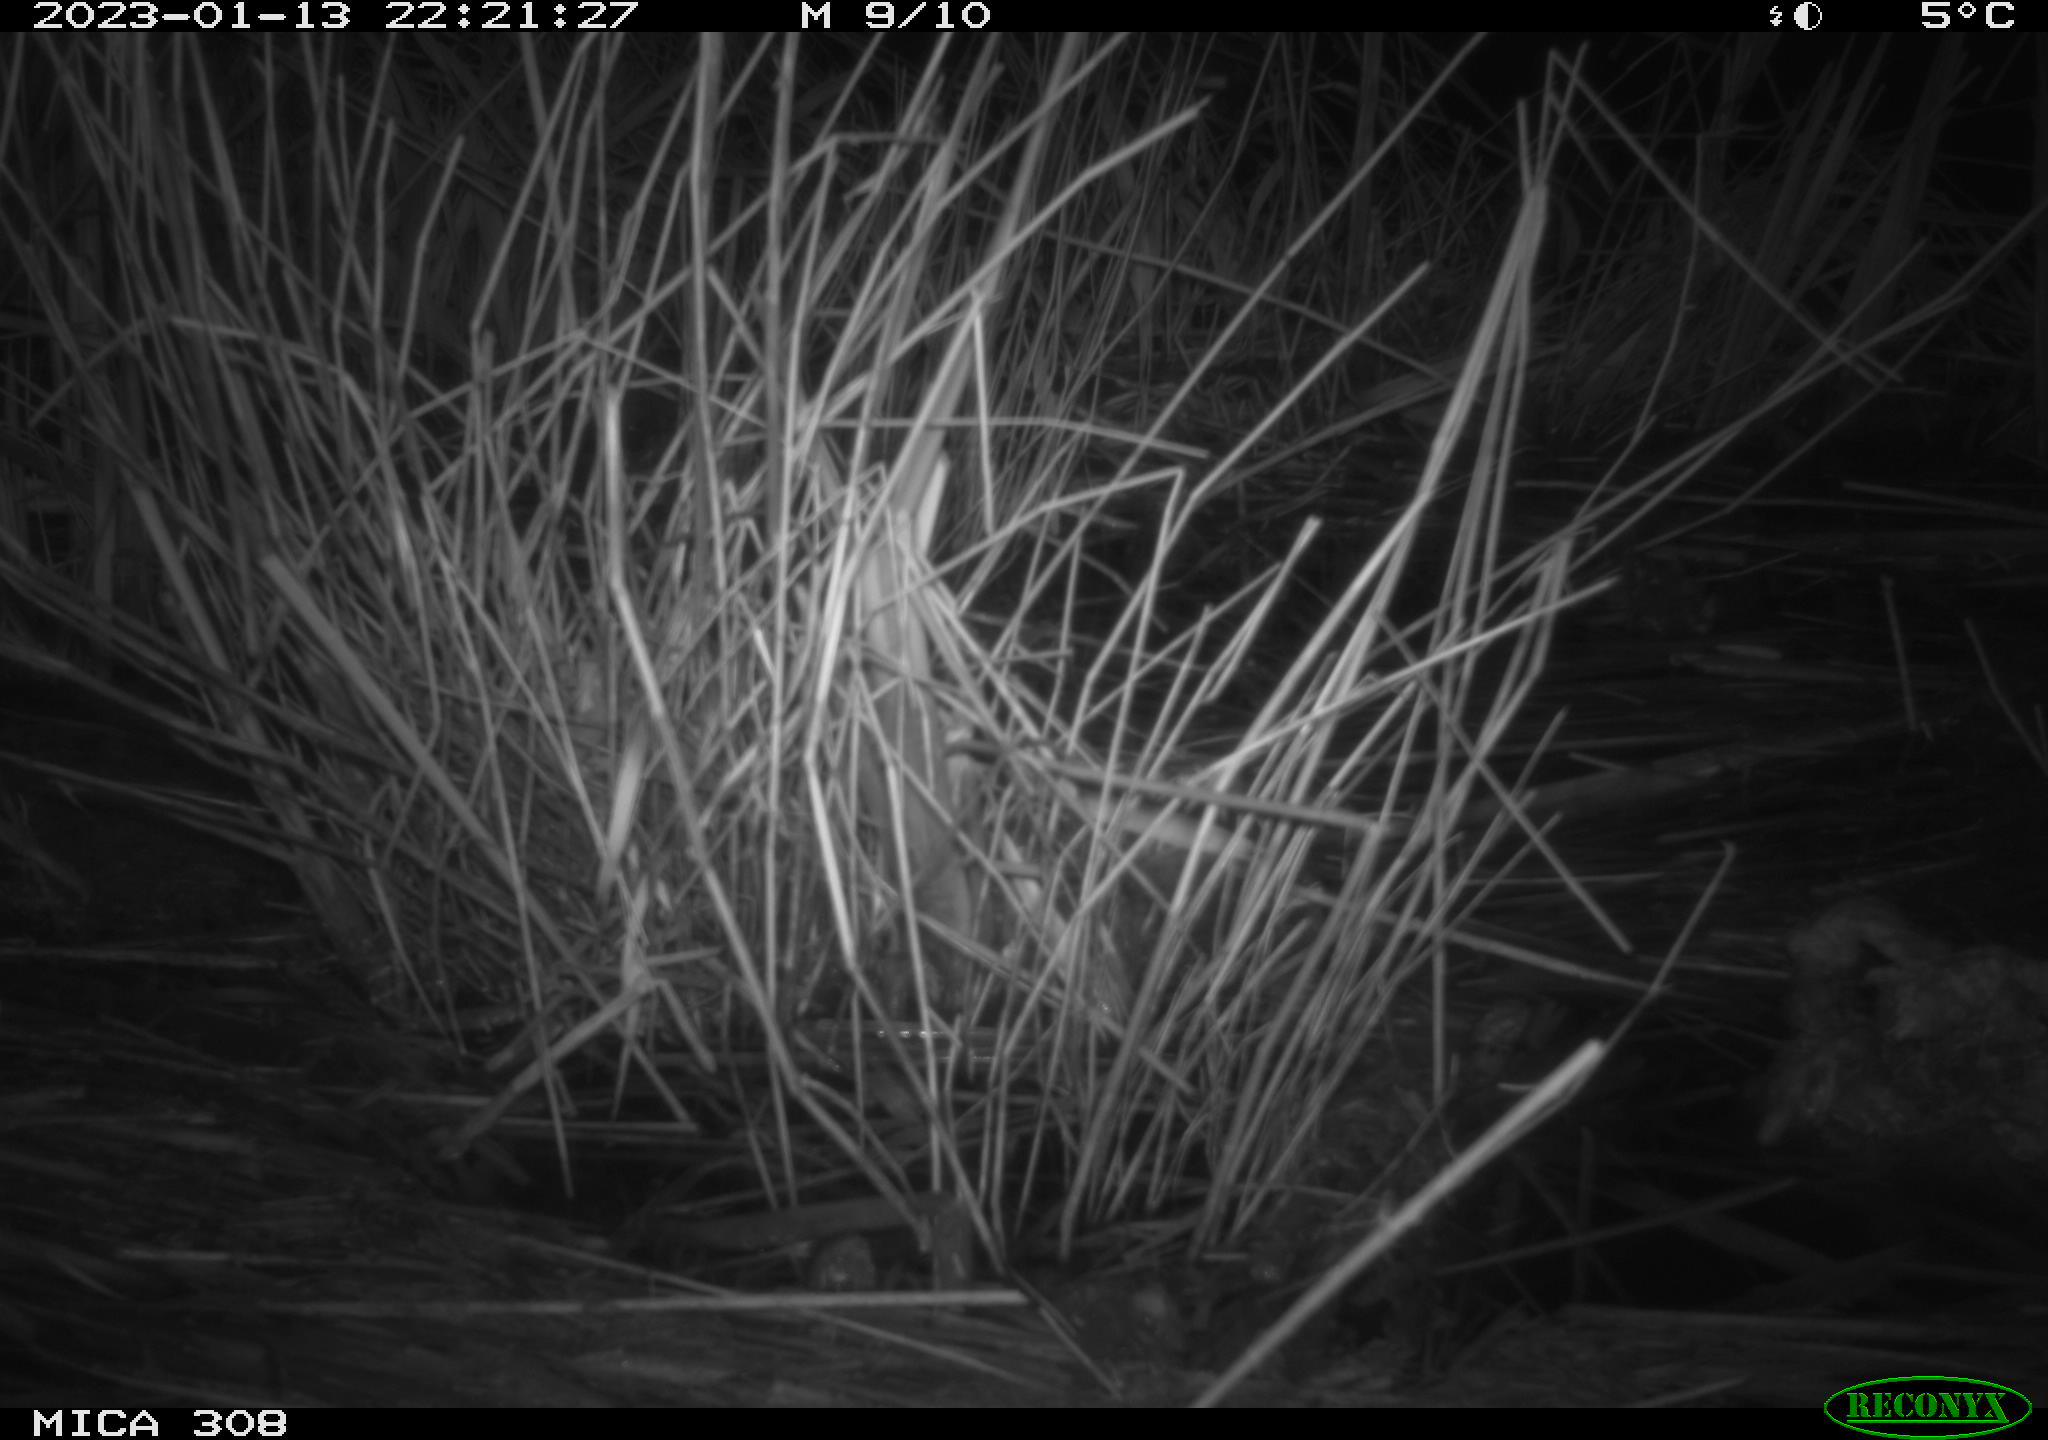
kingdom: Animalia
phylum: Chordata
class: Mammalia
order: Rodentia
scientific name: Rodentia
